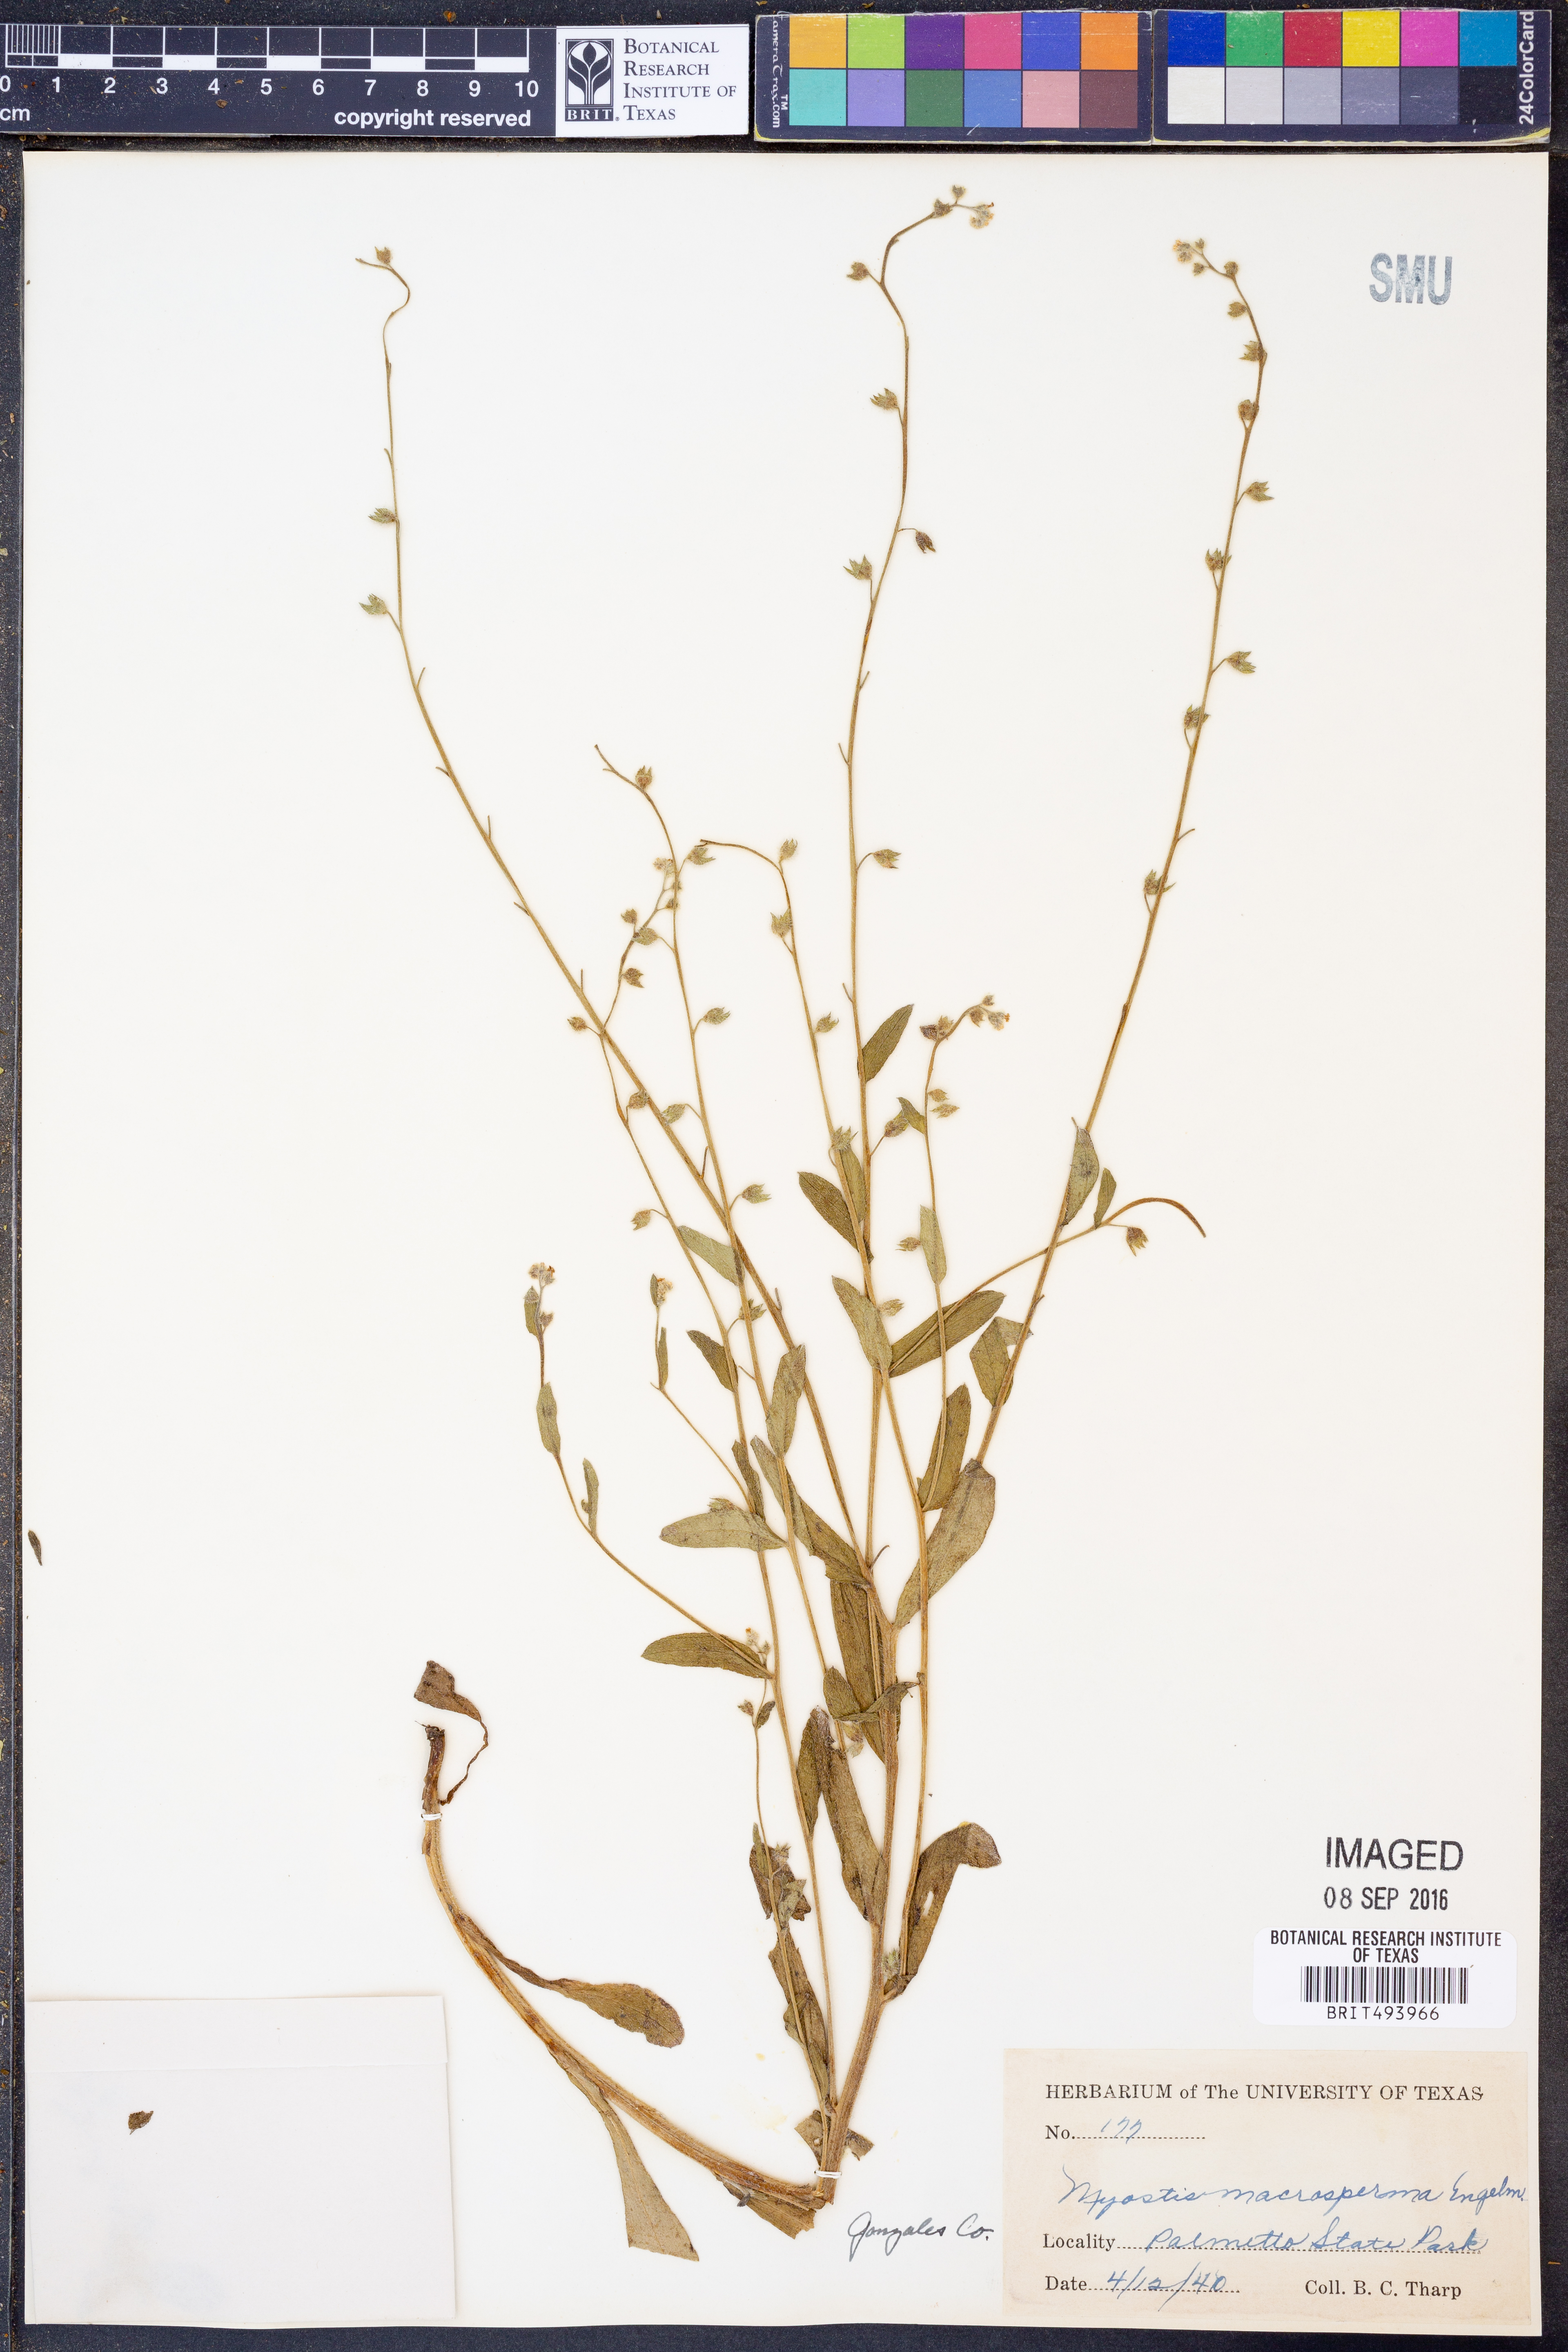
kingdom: Plantae
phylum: Tracheophyta
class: Magnoliopsida
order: Boraginales
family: Boraginaceae
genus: Myosotis
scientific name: Myosotis macrosperma
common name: Large-seed forget-me-not
